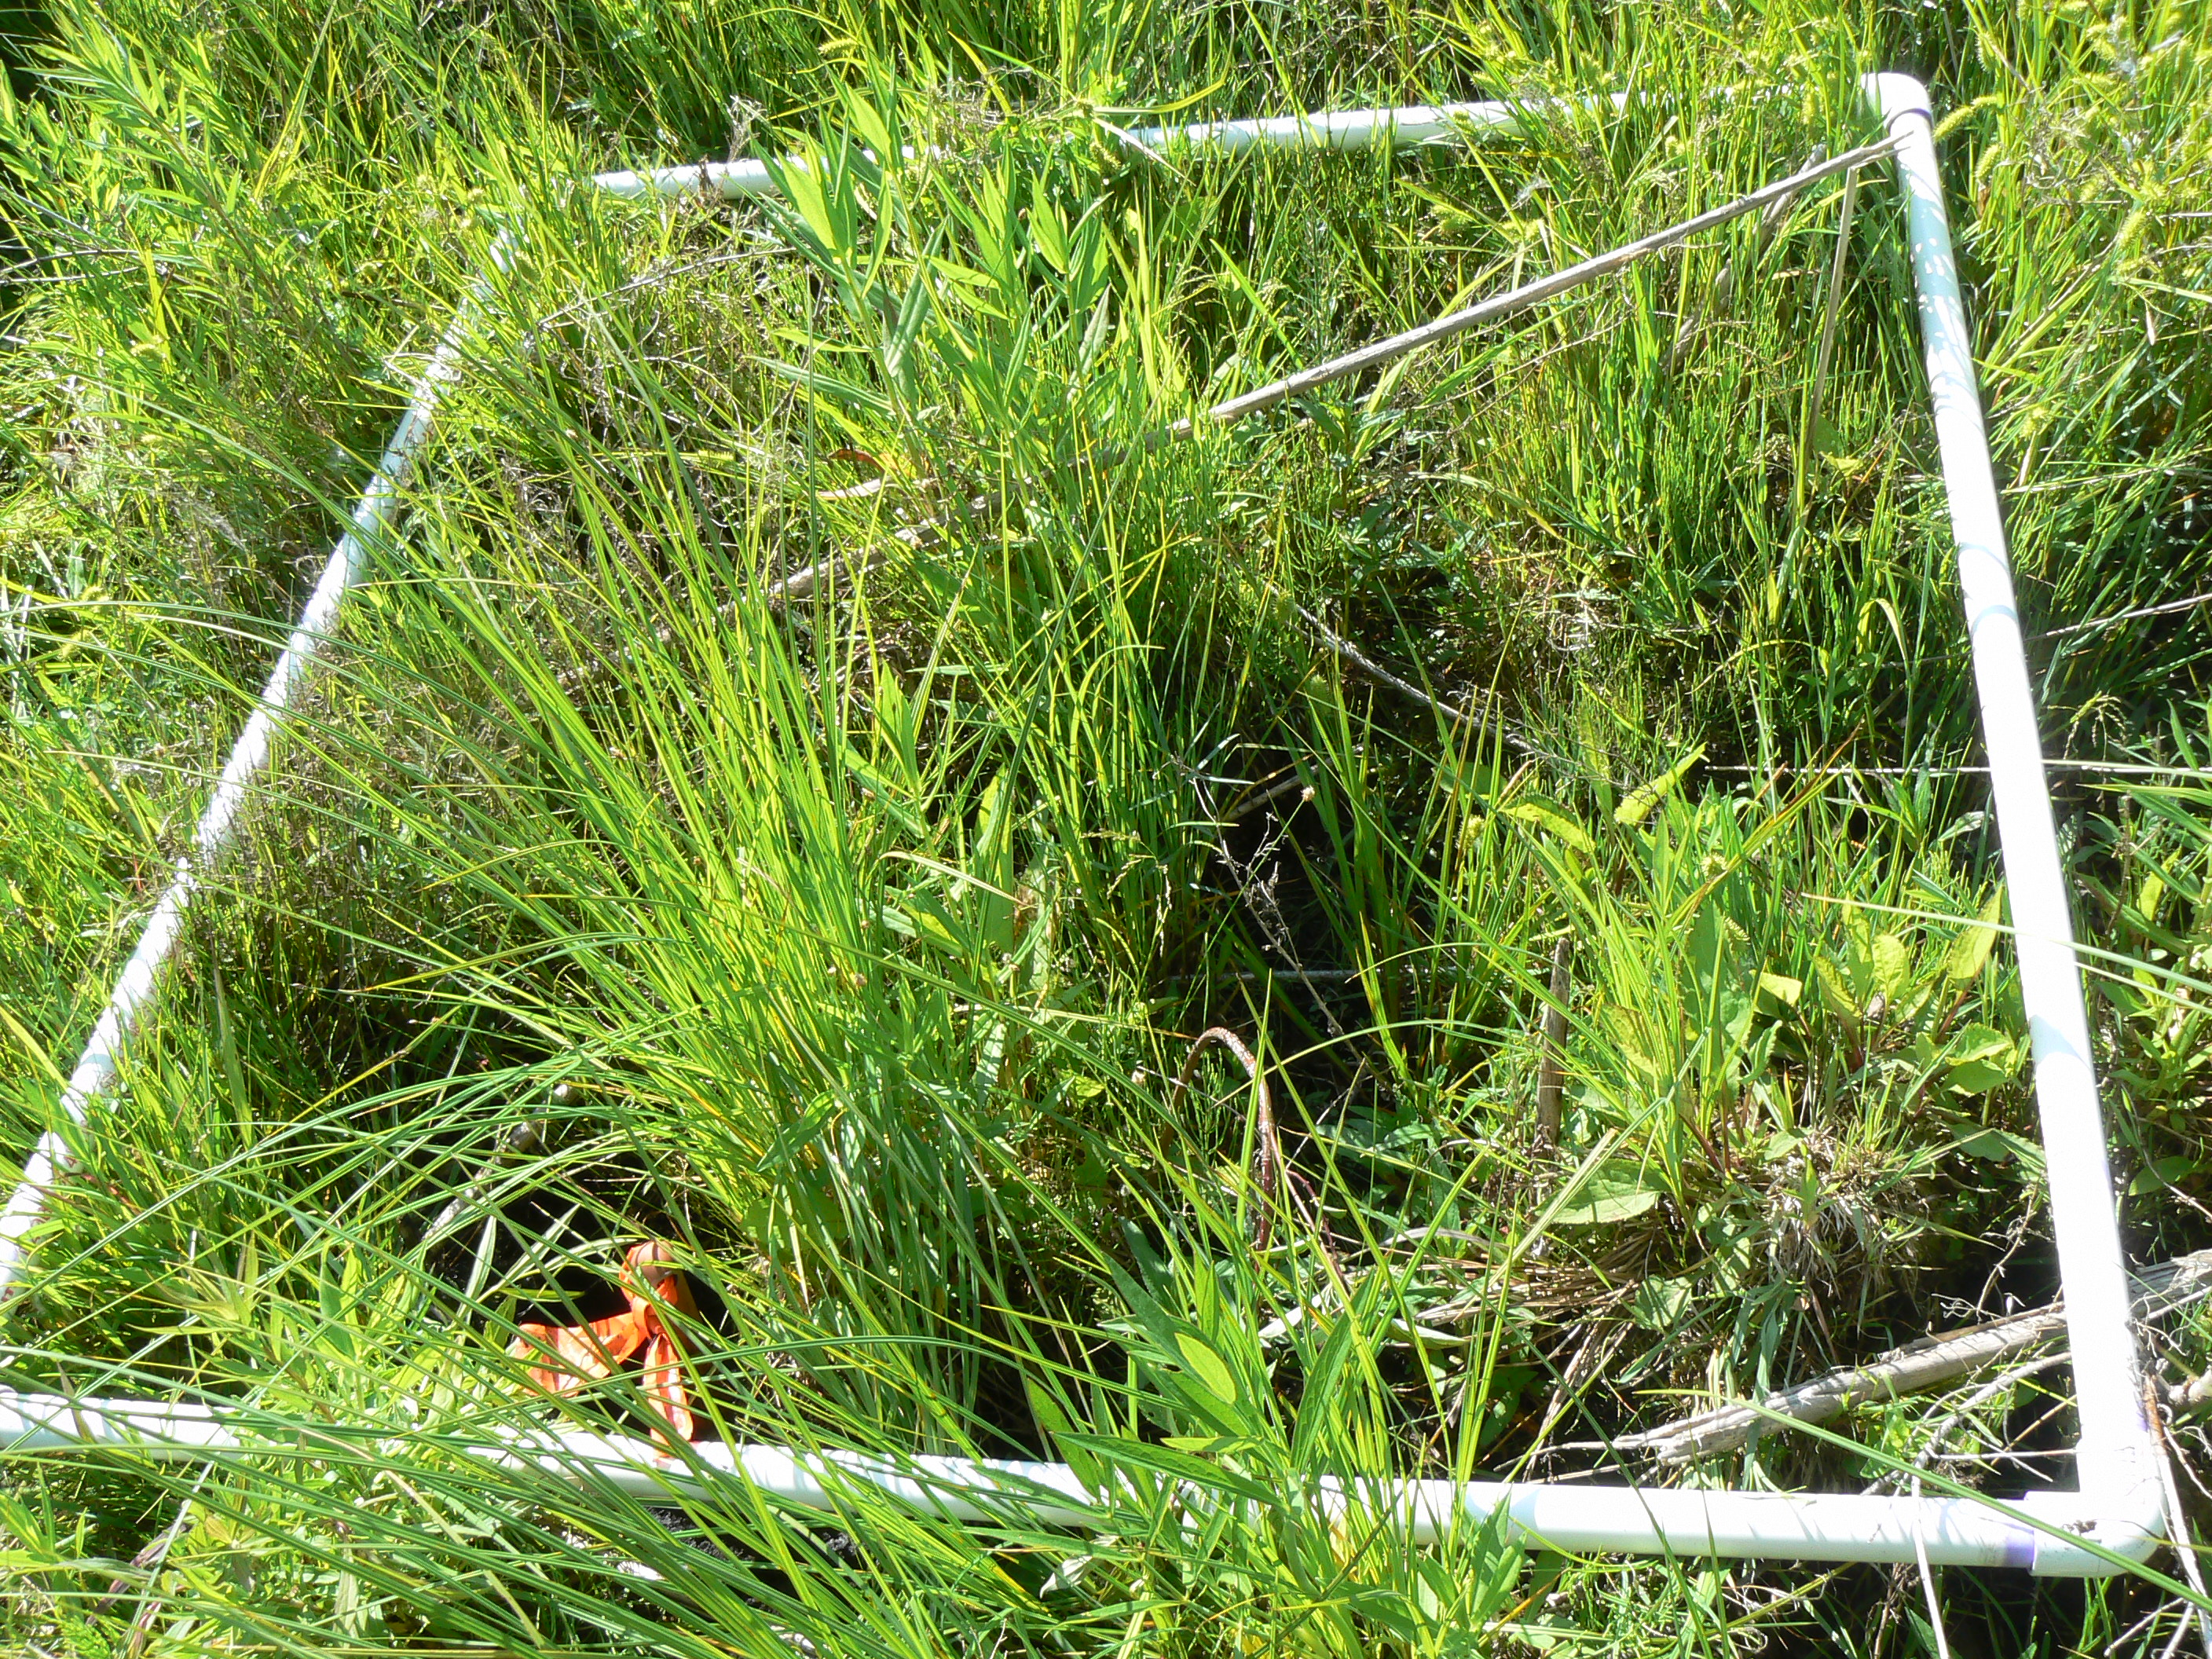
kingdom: Plantae
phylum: Tracheophyta
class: Magnoliopsida
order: Myrtales
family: Lythraceae
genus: Lythrum
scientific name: Lythrum salicaria
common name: Purple loosestrife
